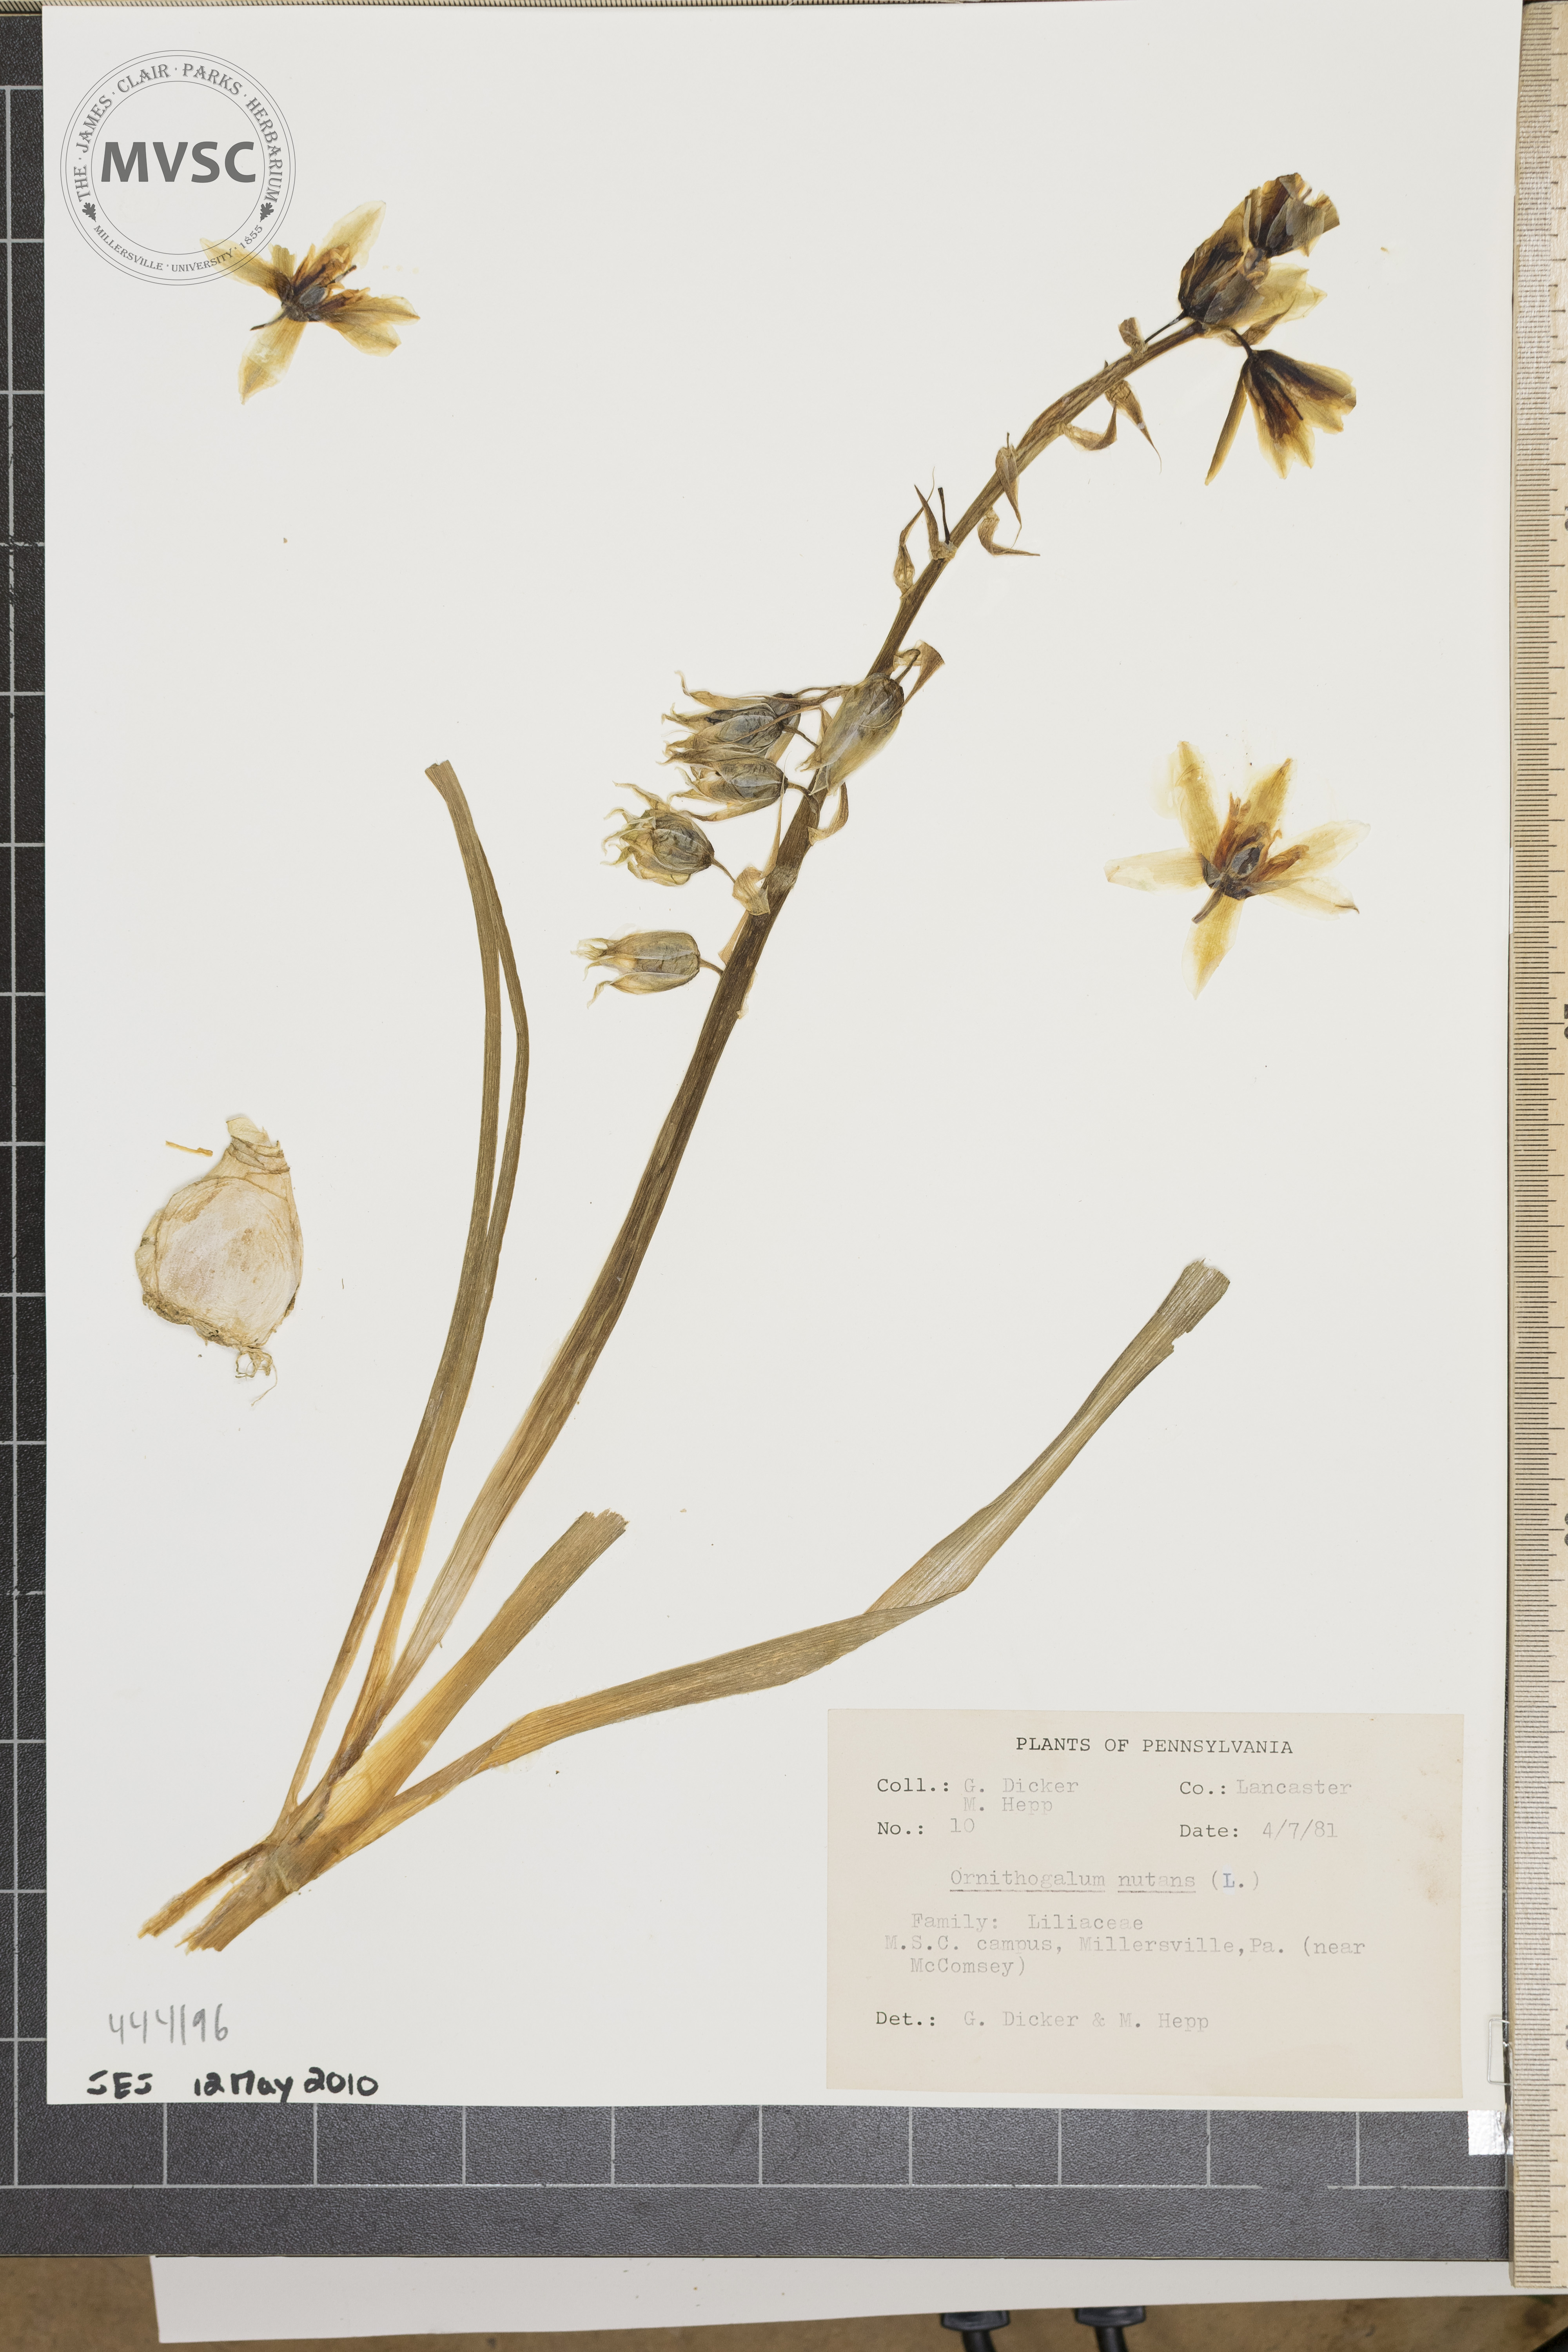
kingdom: Plantae
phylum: Tracheophyta
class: Liliopsida
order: Asparagales
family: Asparagaceae
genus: Ornithogalum
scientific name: Ornithogalum nutans
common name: Drooping star-of-bethlehem
